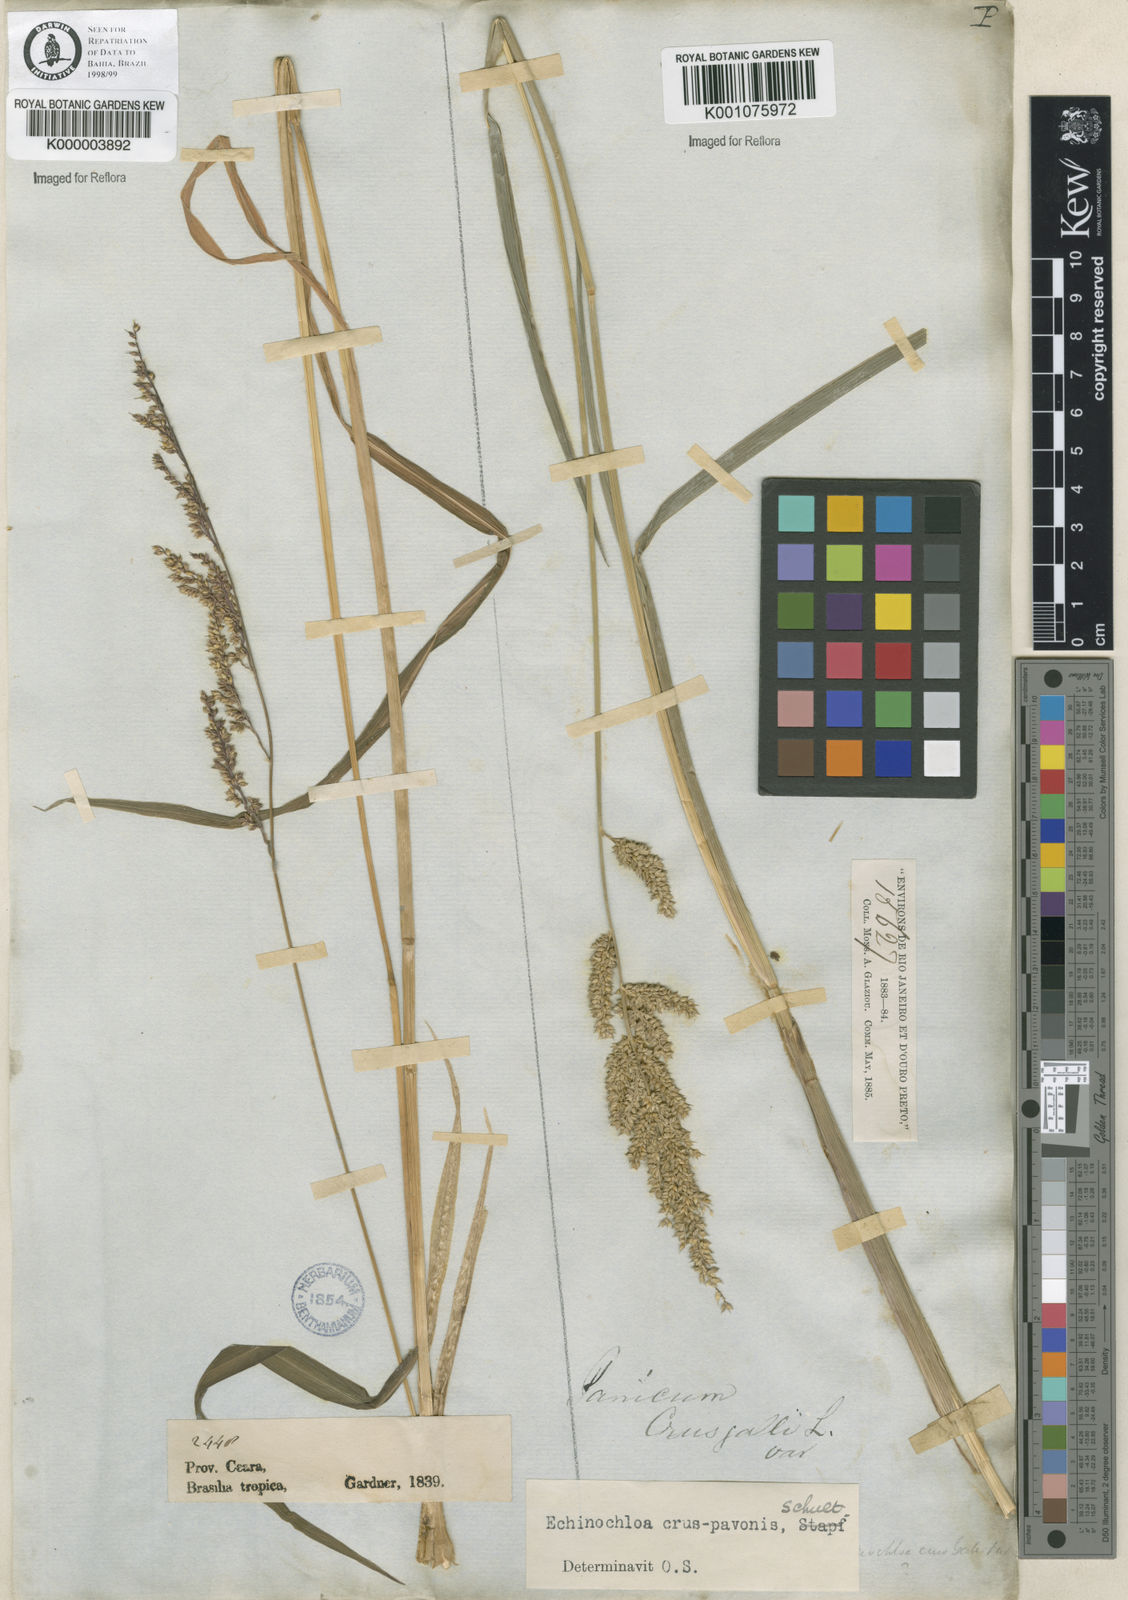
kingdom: Plantae
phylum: Tracheophyta
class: Liliopsida
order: Poales
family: Poaceae
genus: Echinochloa
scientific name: Echinochloa crus-pavonis
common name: Gulf cockspur grass
